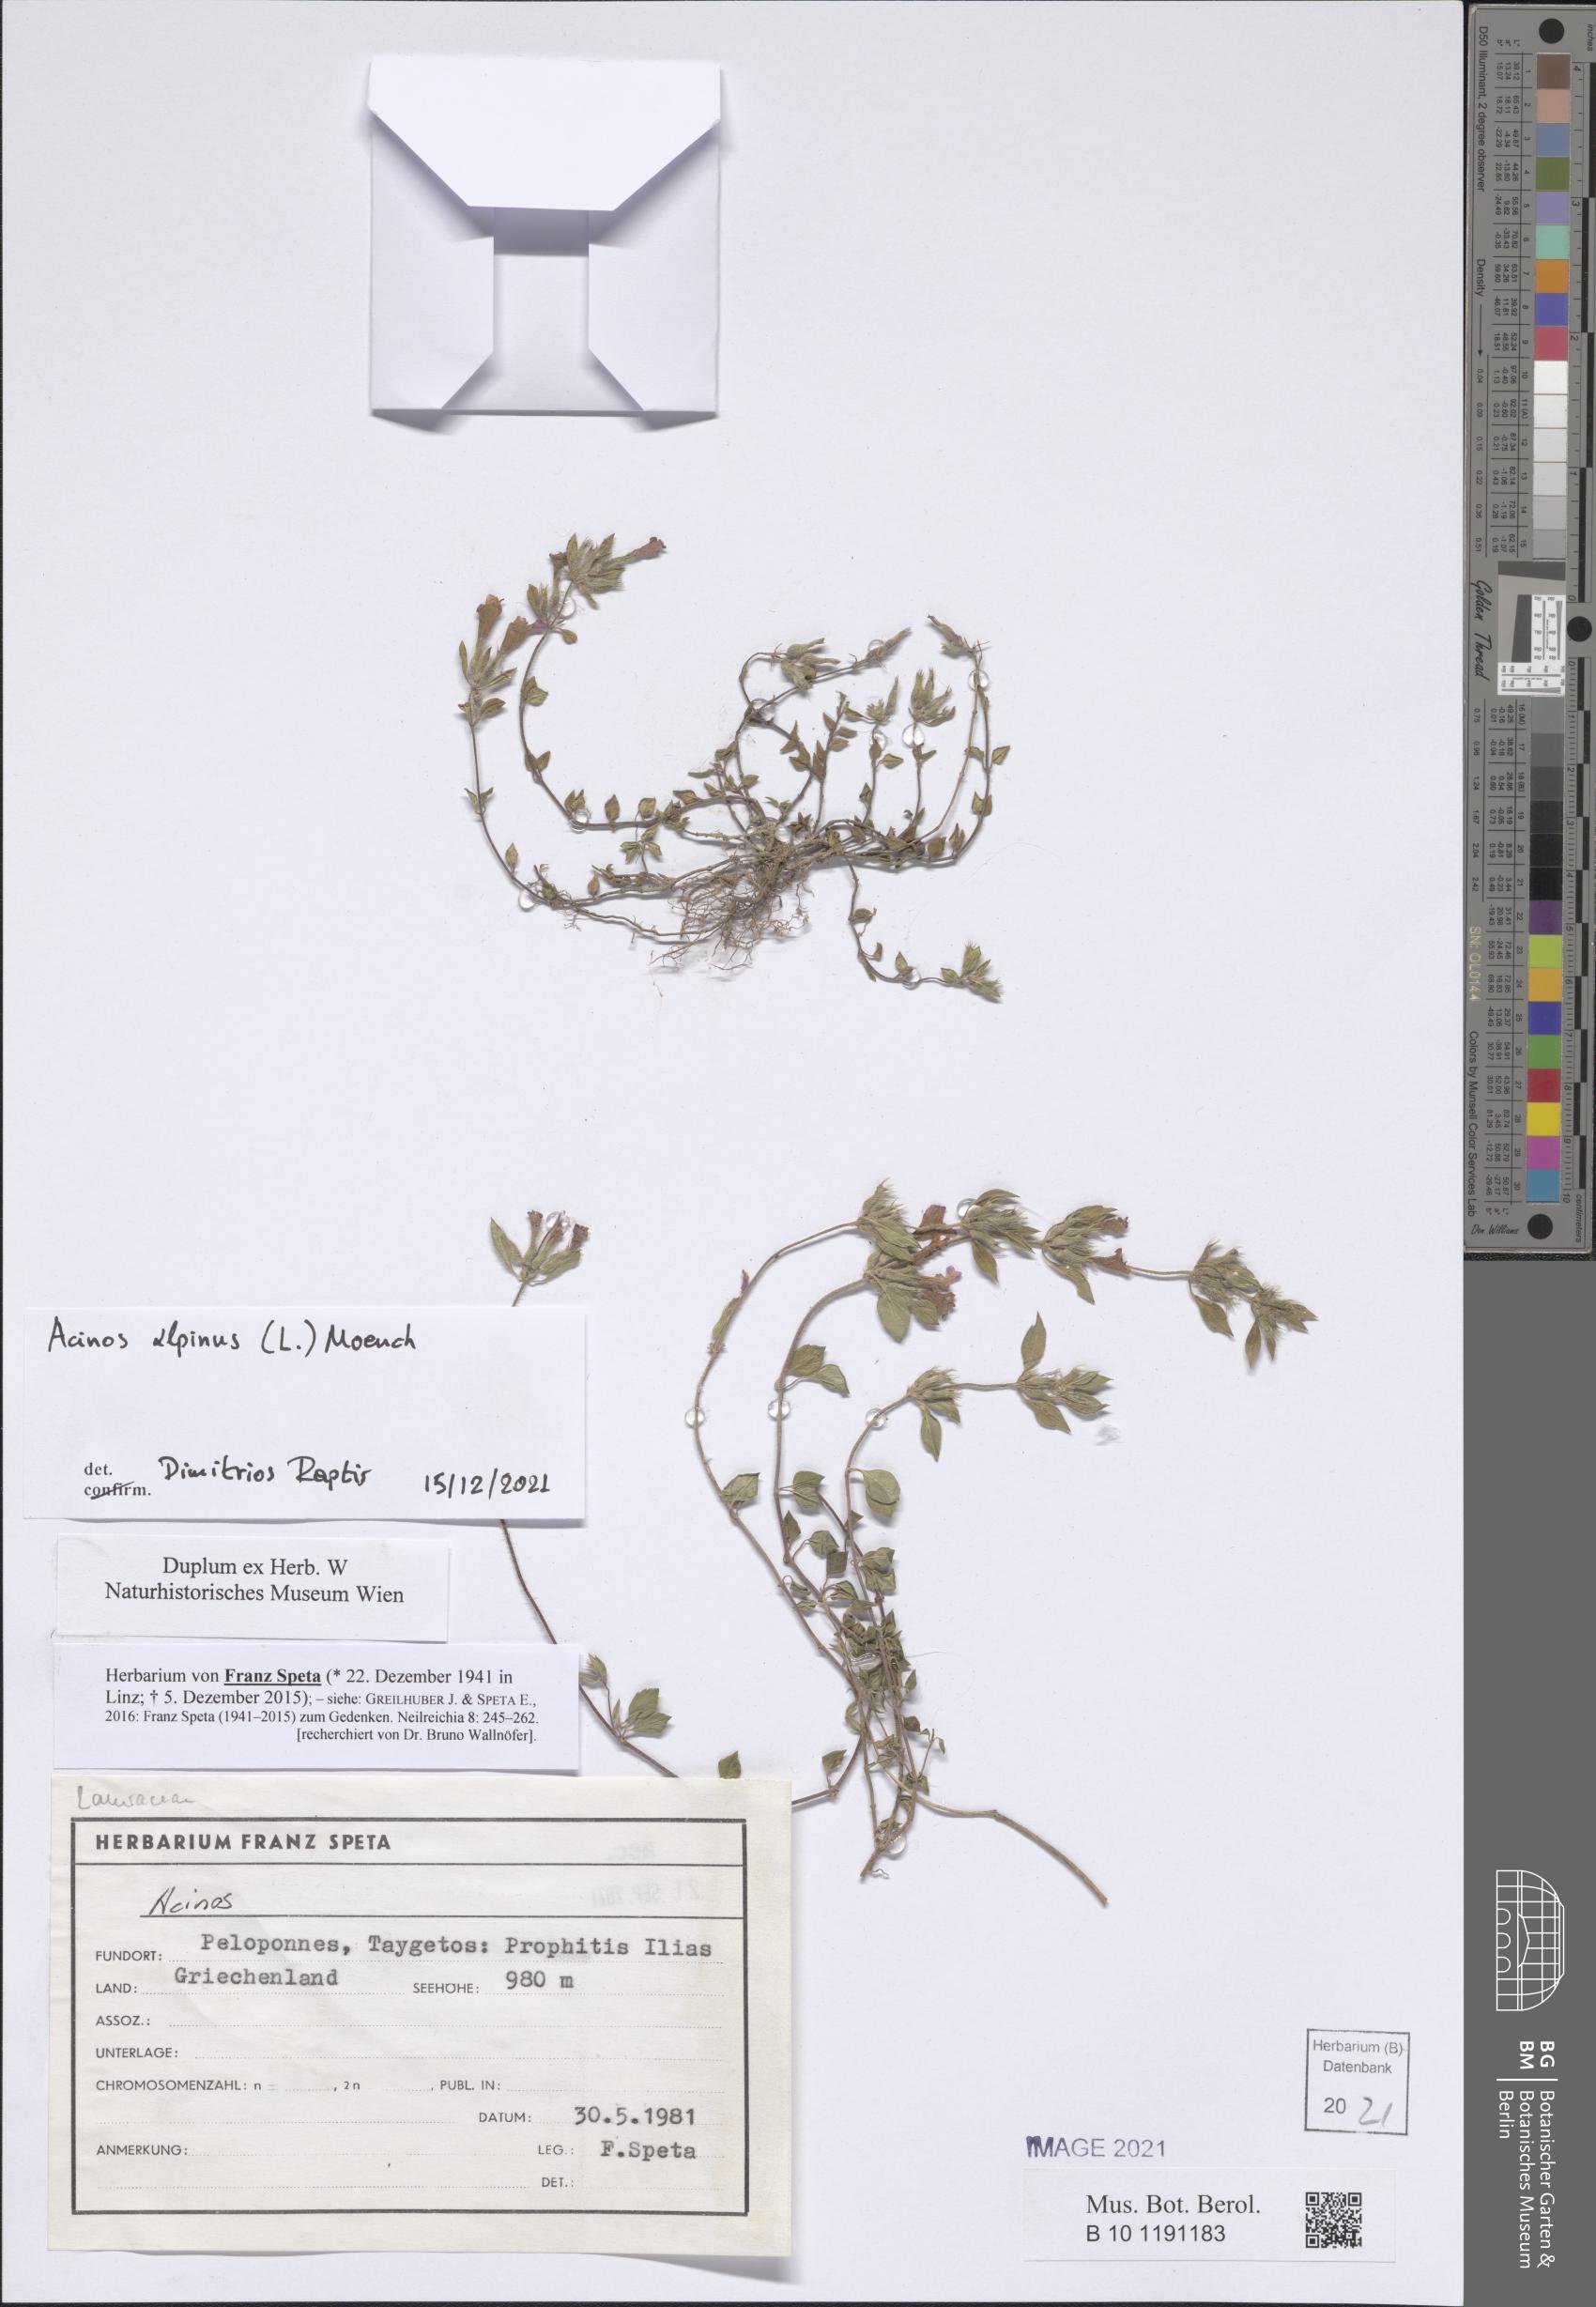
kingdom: Plantae
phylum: Tracheophyta
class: Magnoliopsida
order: Lamiales
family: Lamiaceae
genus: Clinopodium
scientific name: Clinopodium alpinum
